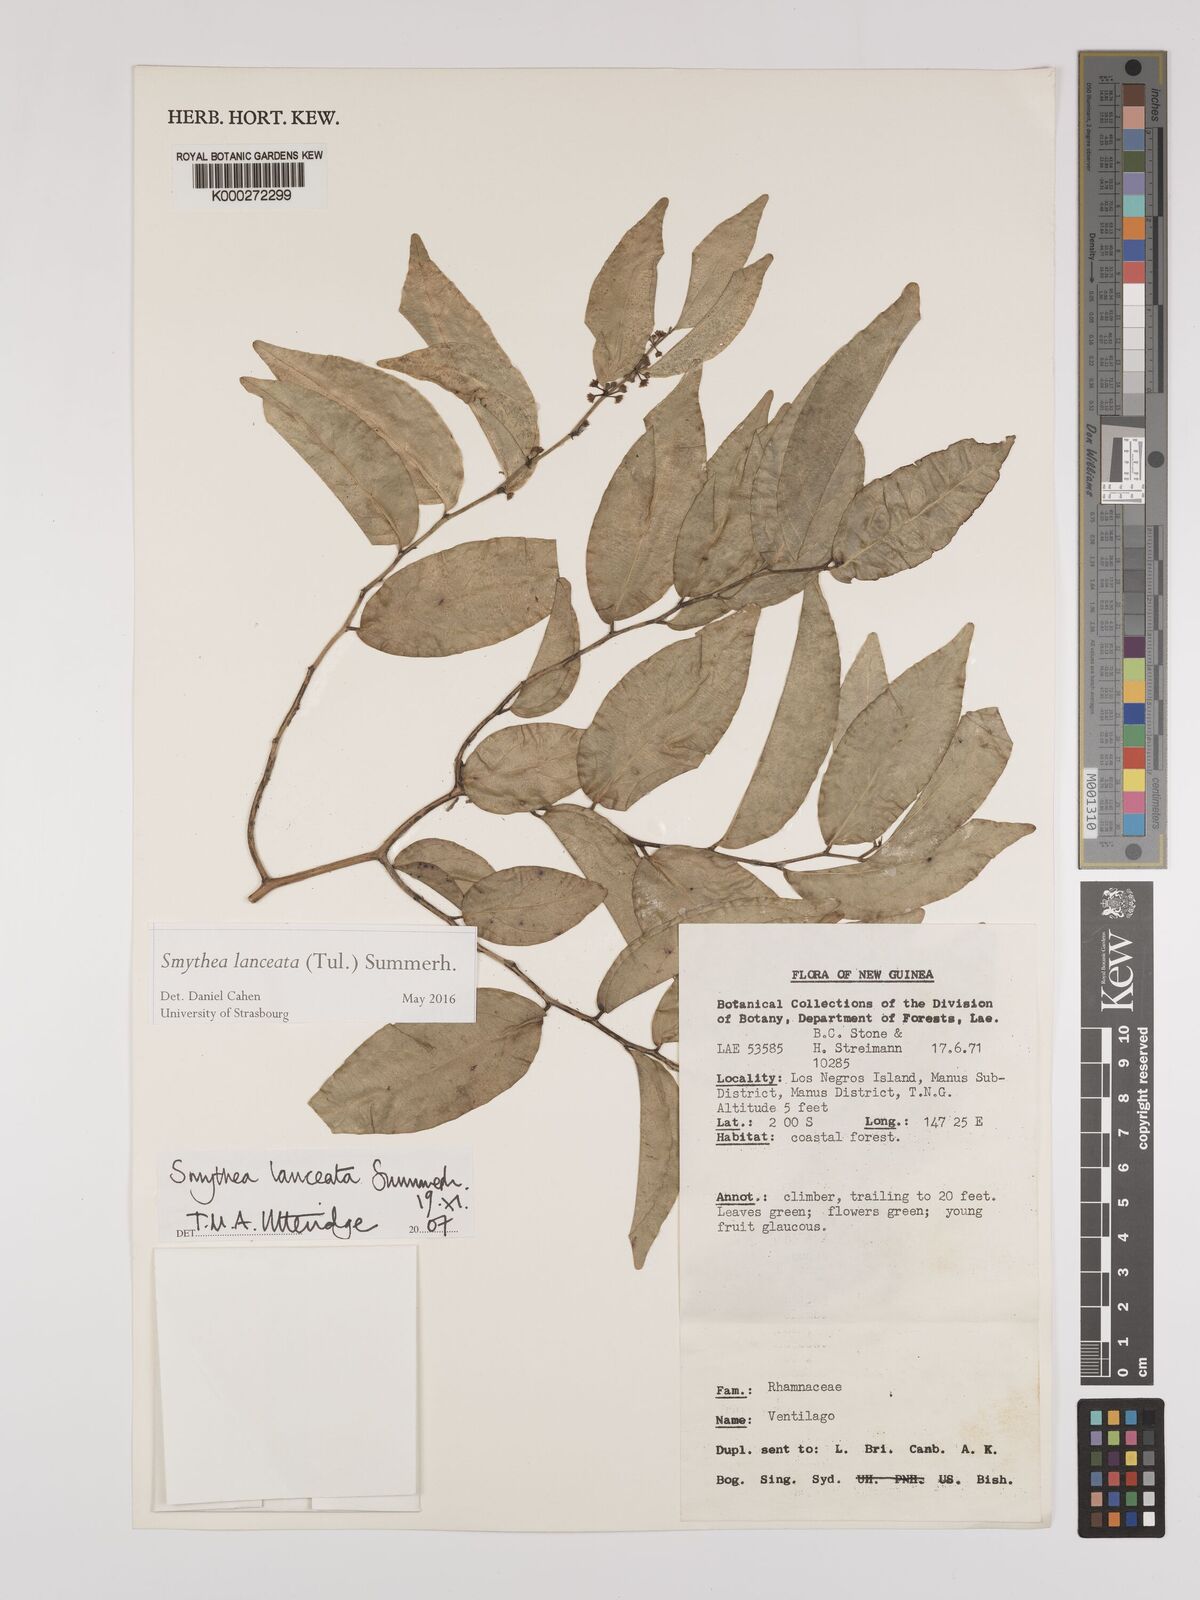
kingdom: Plantae
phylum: Tracheophyta
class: Magnoliopsida
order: Rosales
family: Rhamnaceae
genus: Smythea
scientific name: Smythea lanceata
